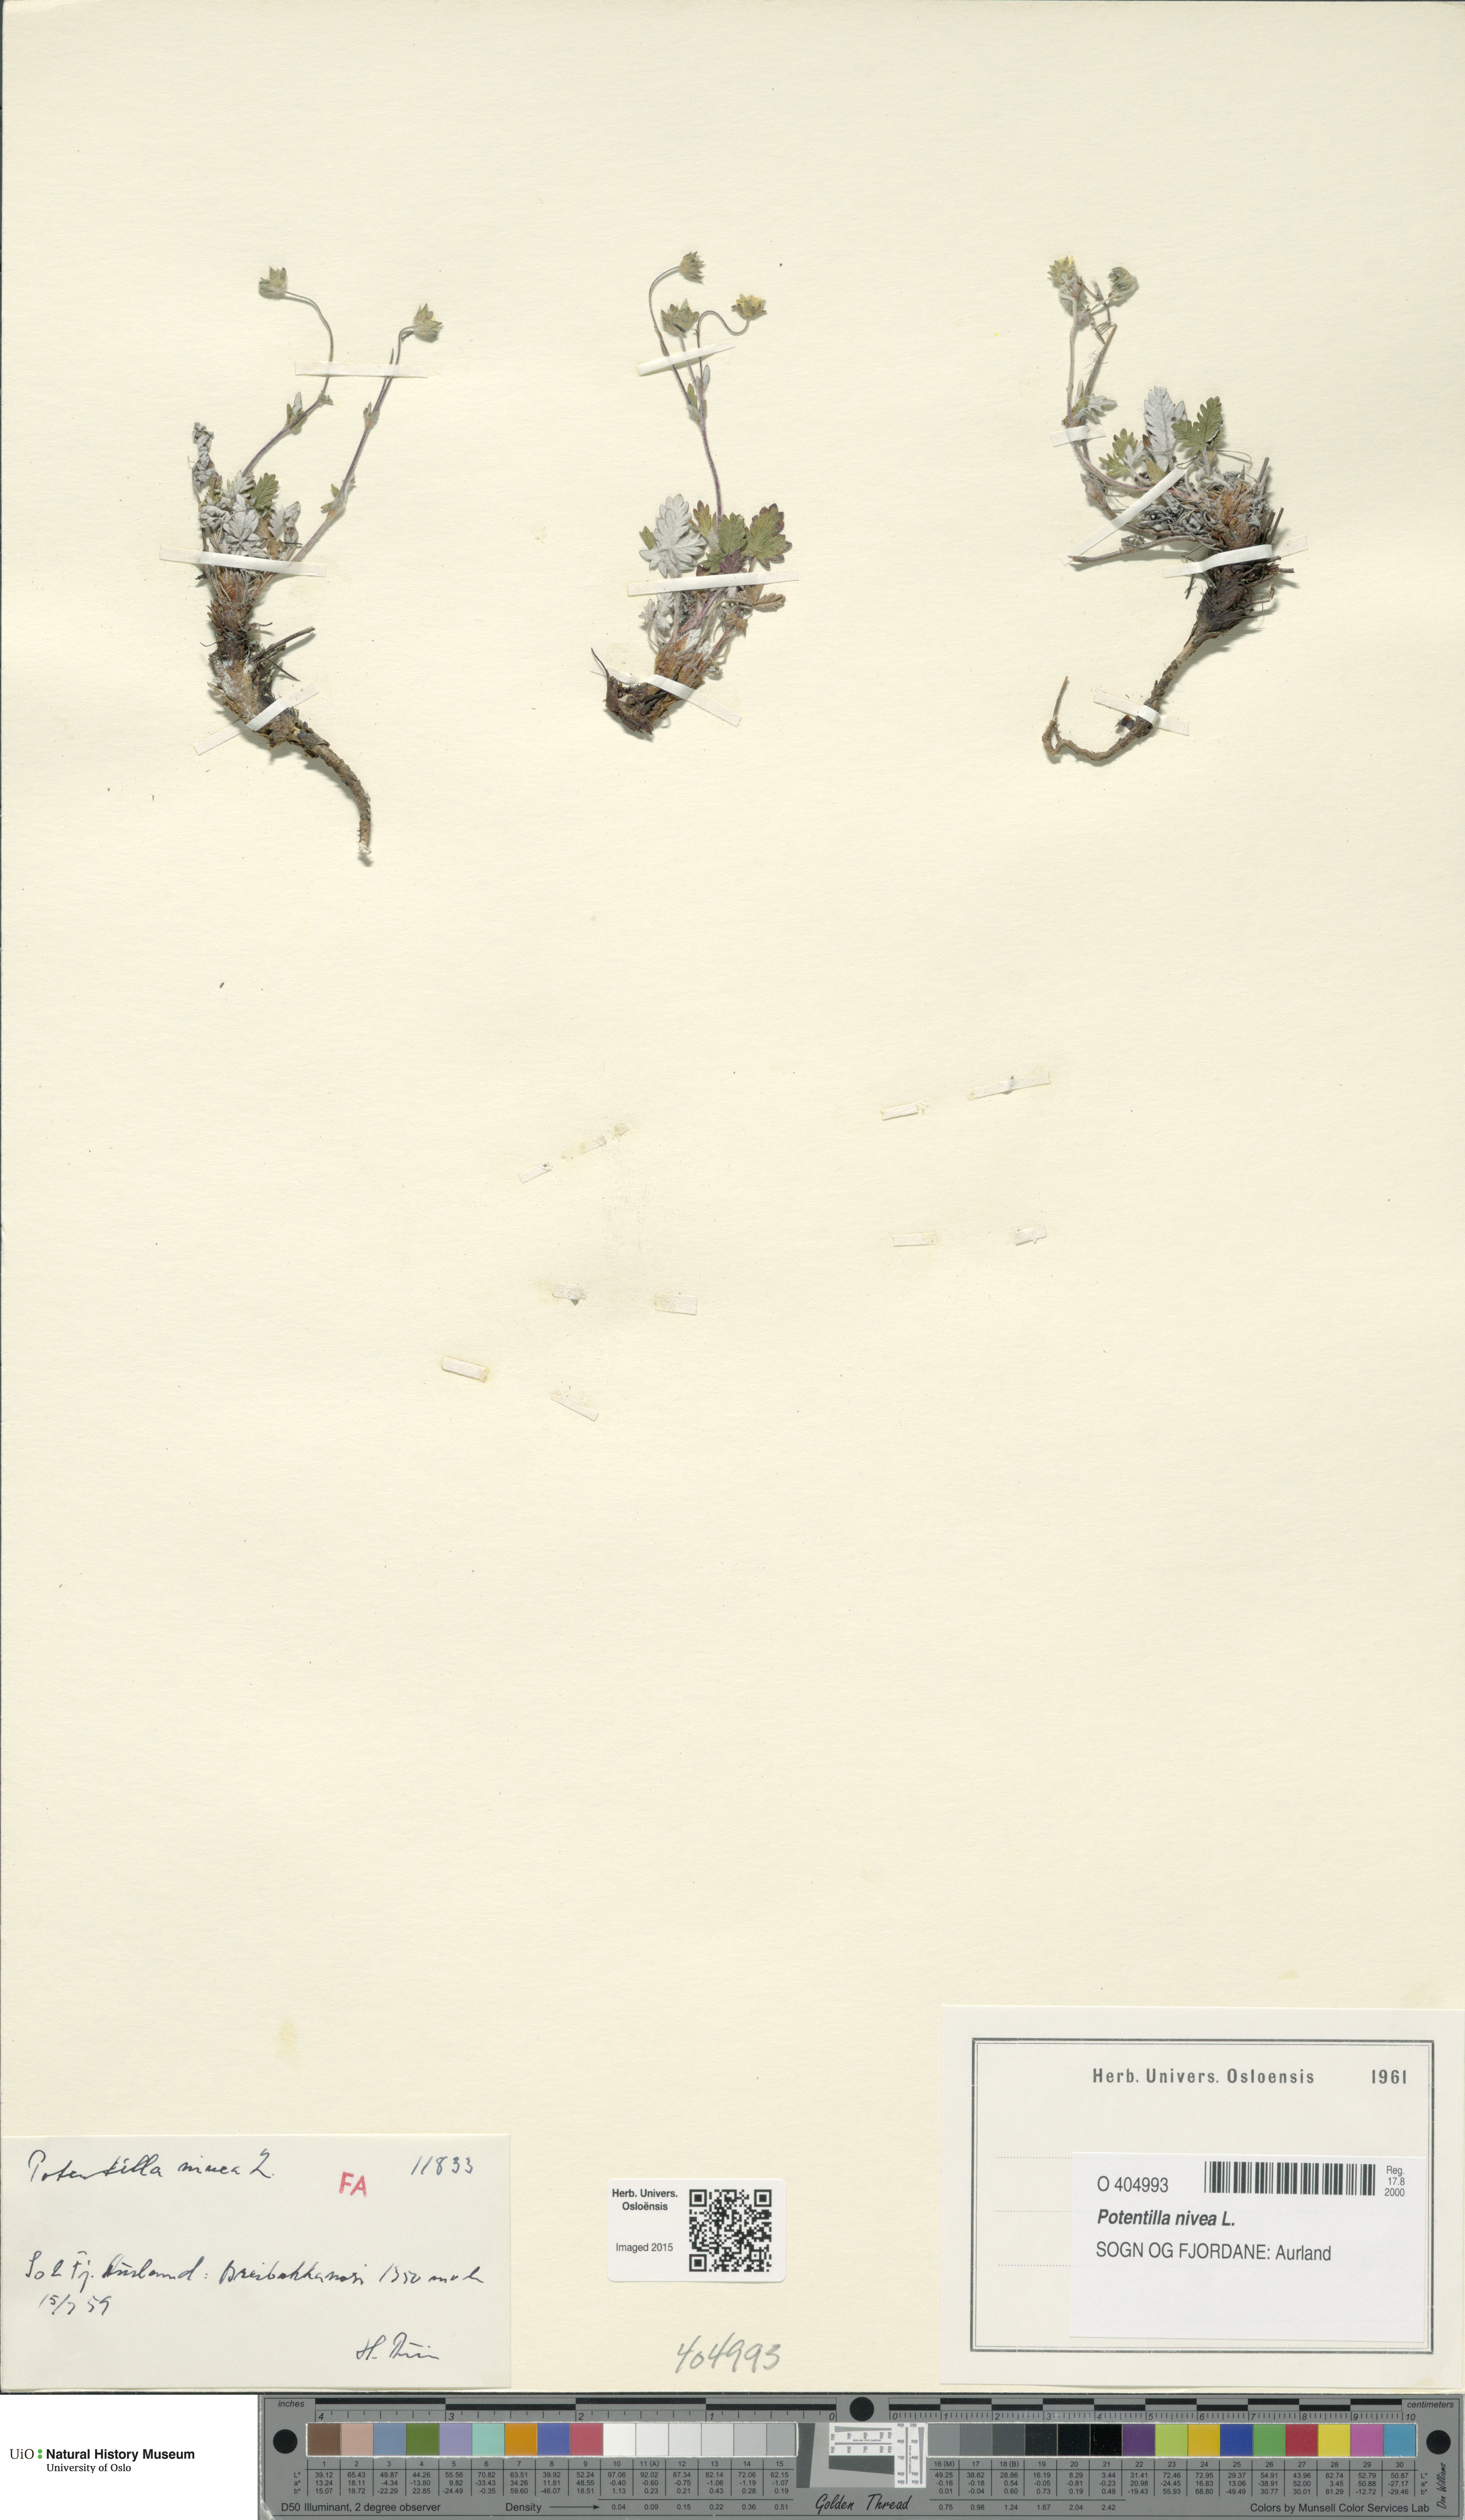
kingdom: Plantae
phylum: Tracheophyta
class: Magnoliopsida
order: Rosales
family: Rosaceae
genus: Potentilla
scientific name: Potentilla arenosa
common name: Bluff cinquefoil
